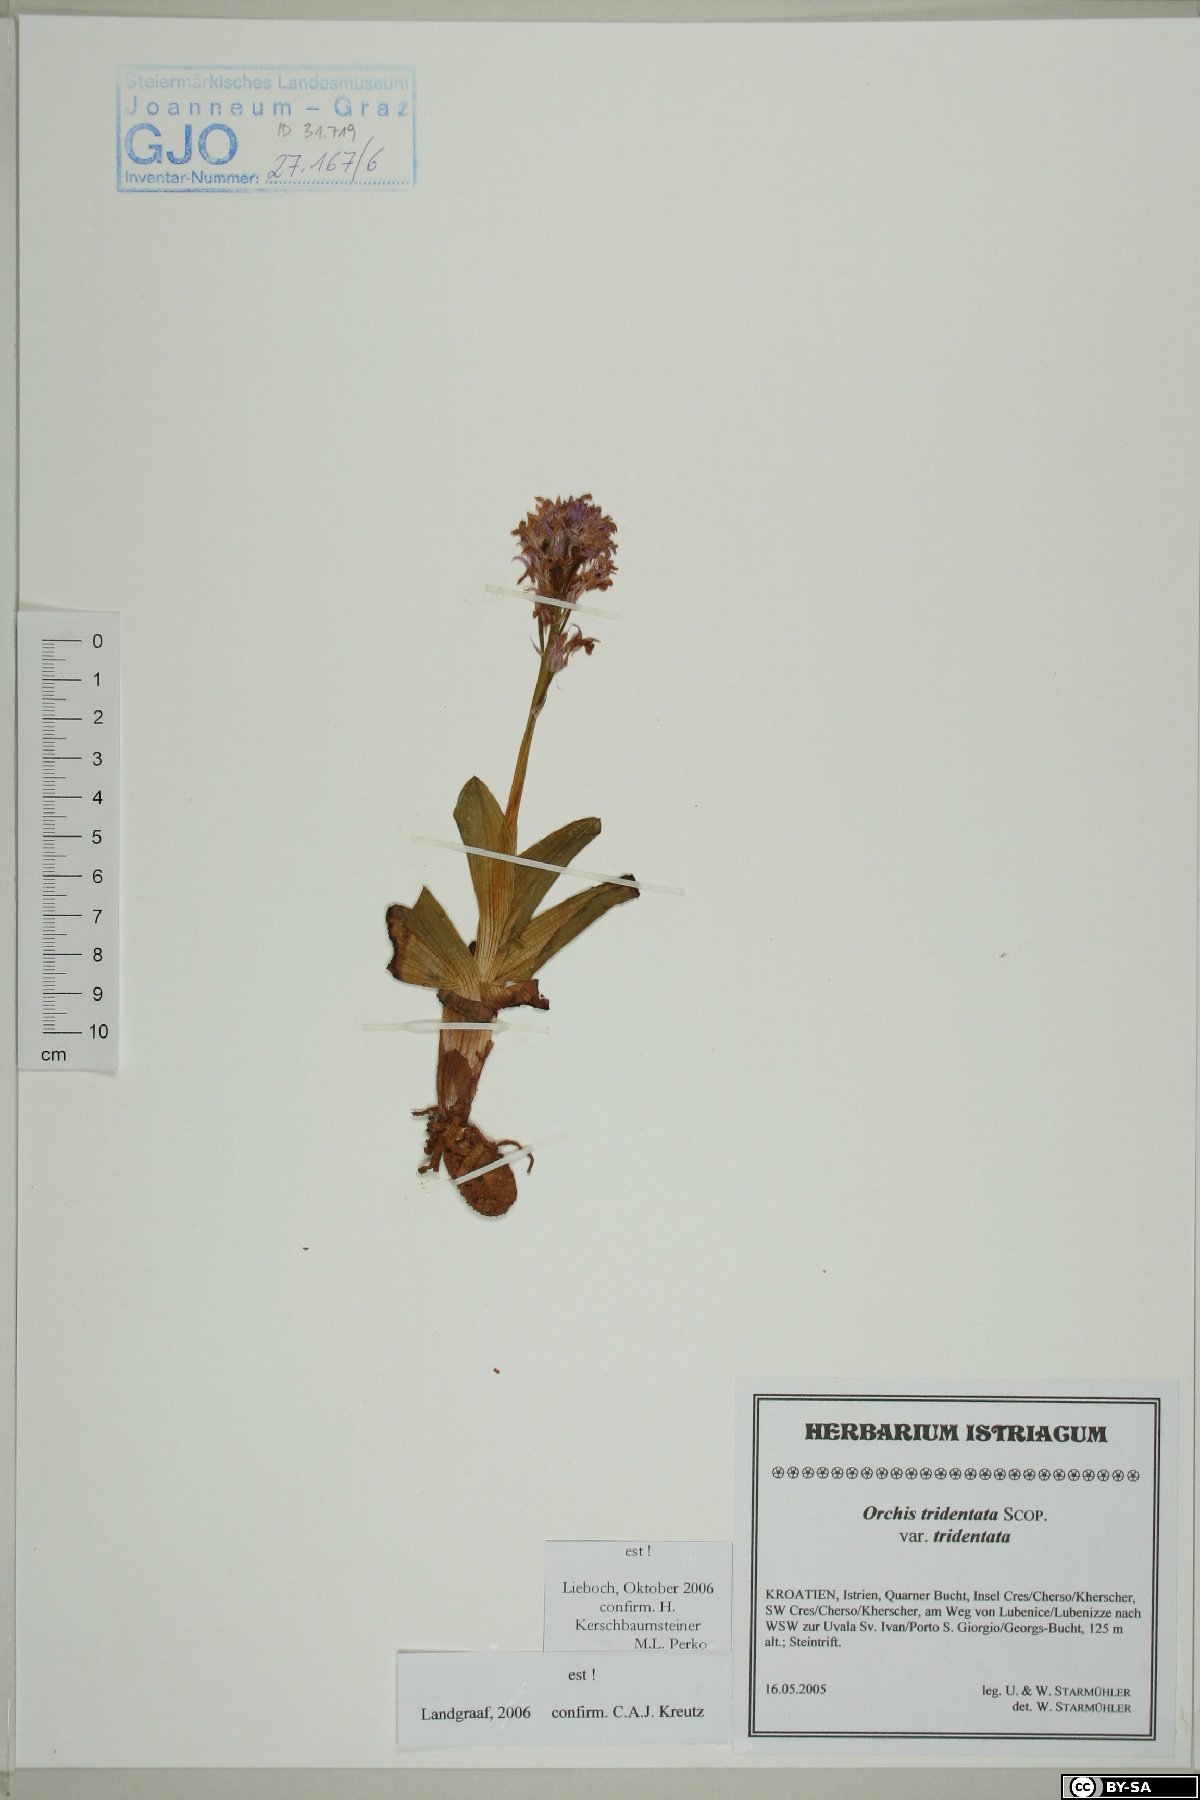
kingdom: Plantae
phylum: Tracheophyta
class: Liliopsida
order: Asparagales
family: Orchidaceae
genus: Neotinea
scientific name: Neotinea tridentata
